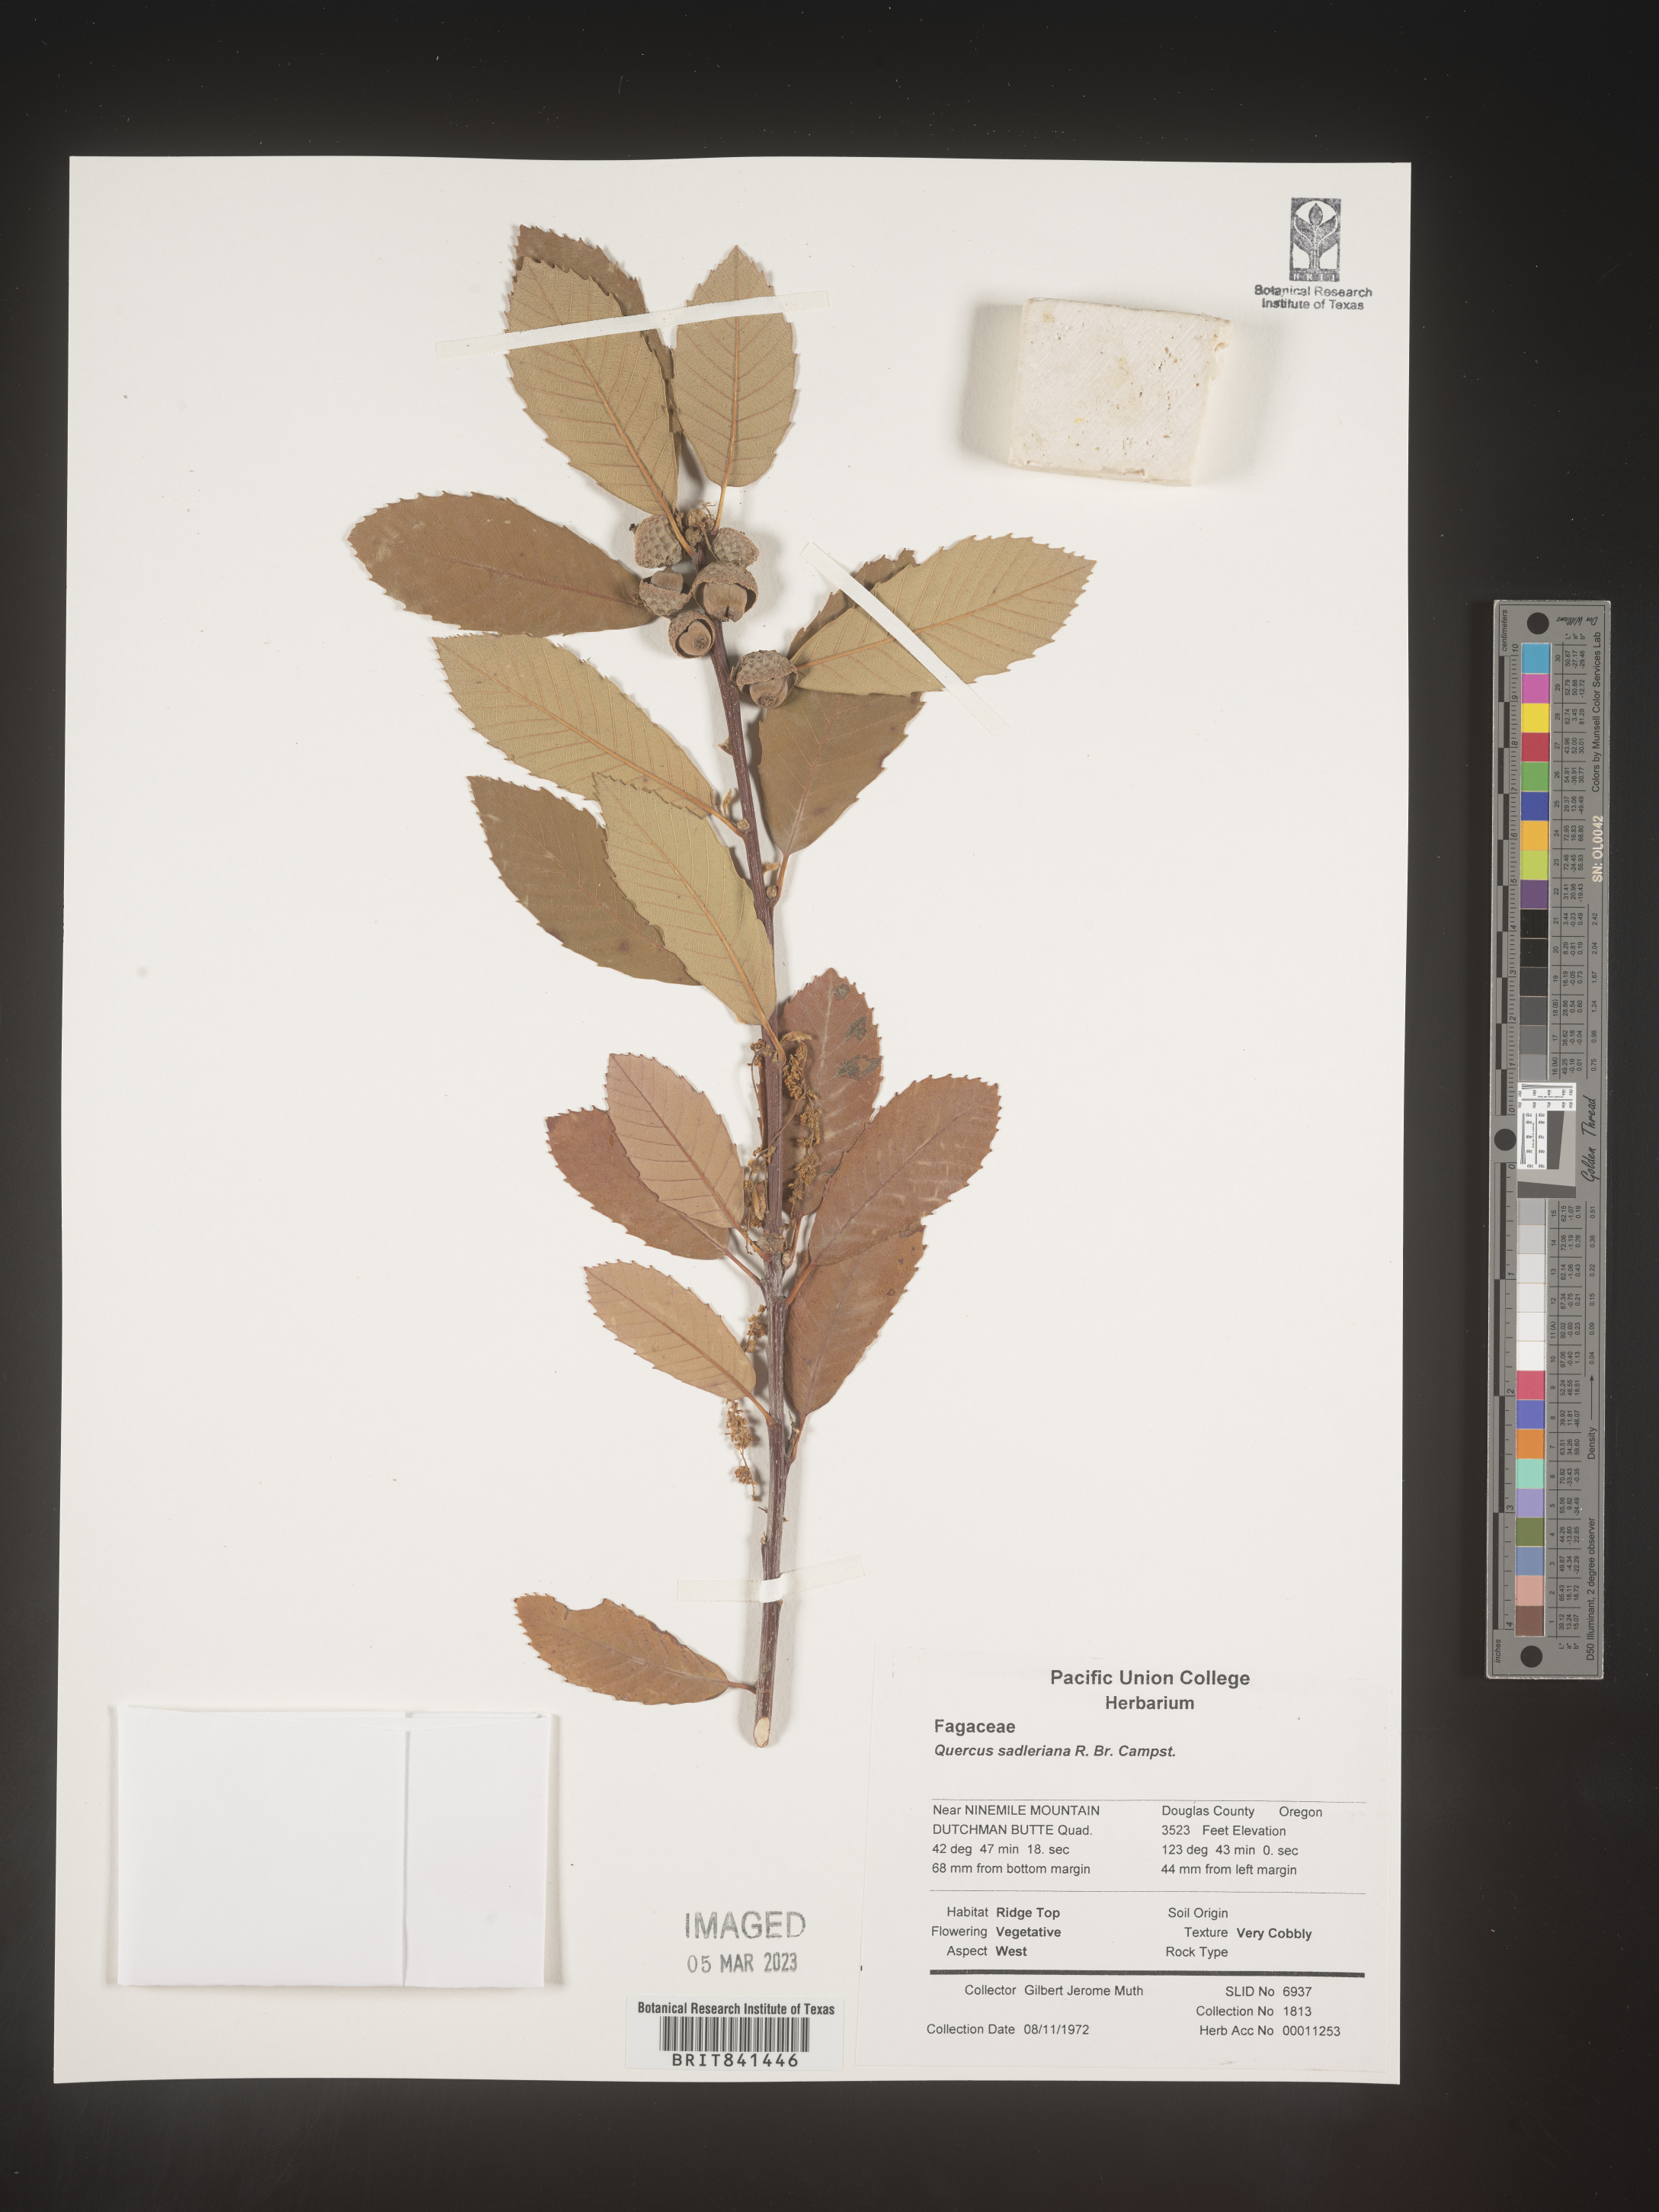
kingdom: Plantae
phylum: Tracheophyta
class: Magnoliopsida
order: Fagales
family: Fagaceae
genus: Quercus
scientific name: Quercus sadleriana
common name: Deer oak
